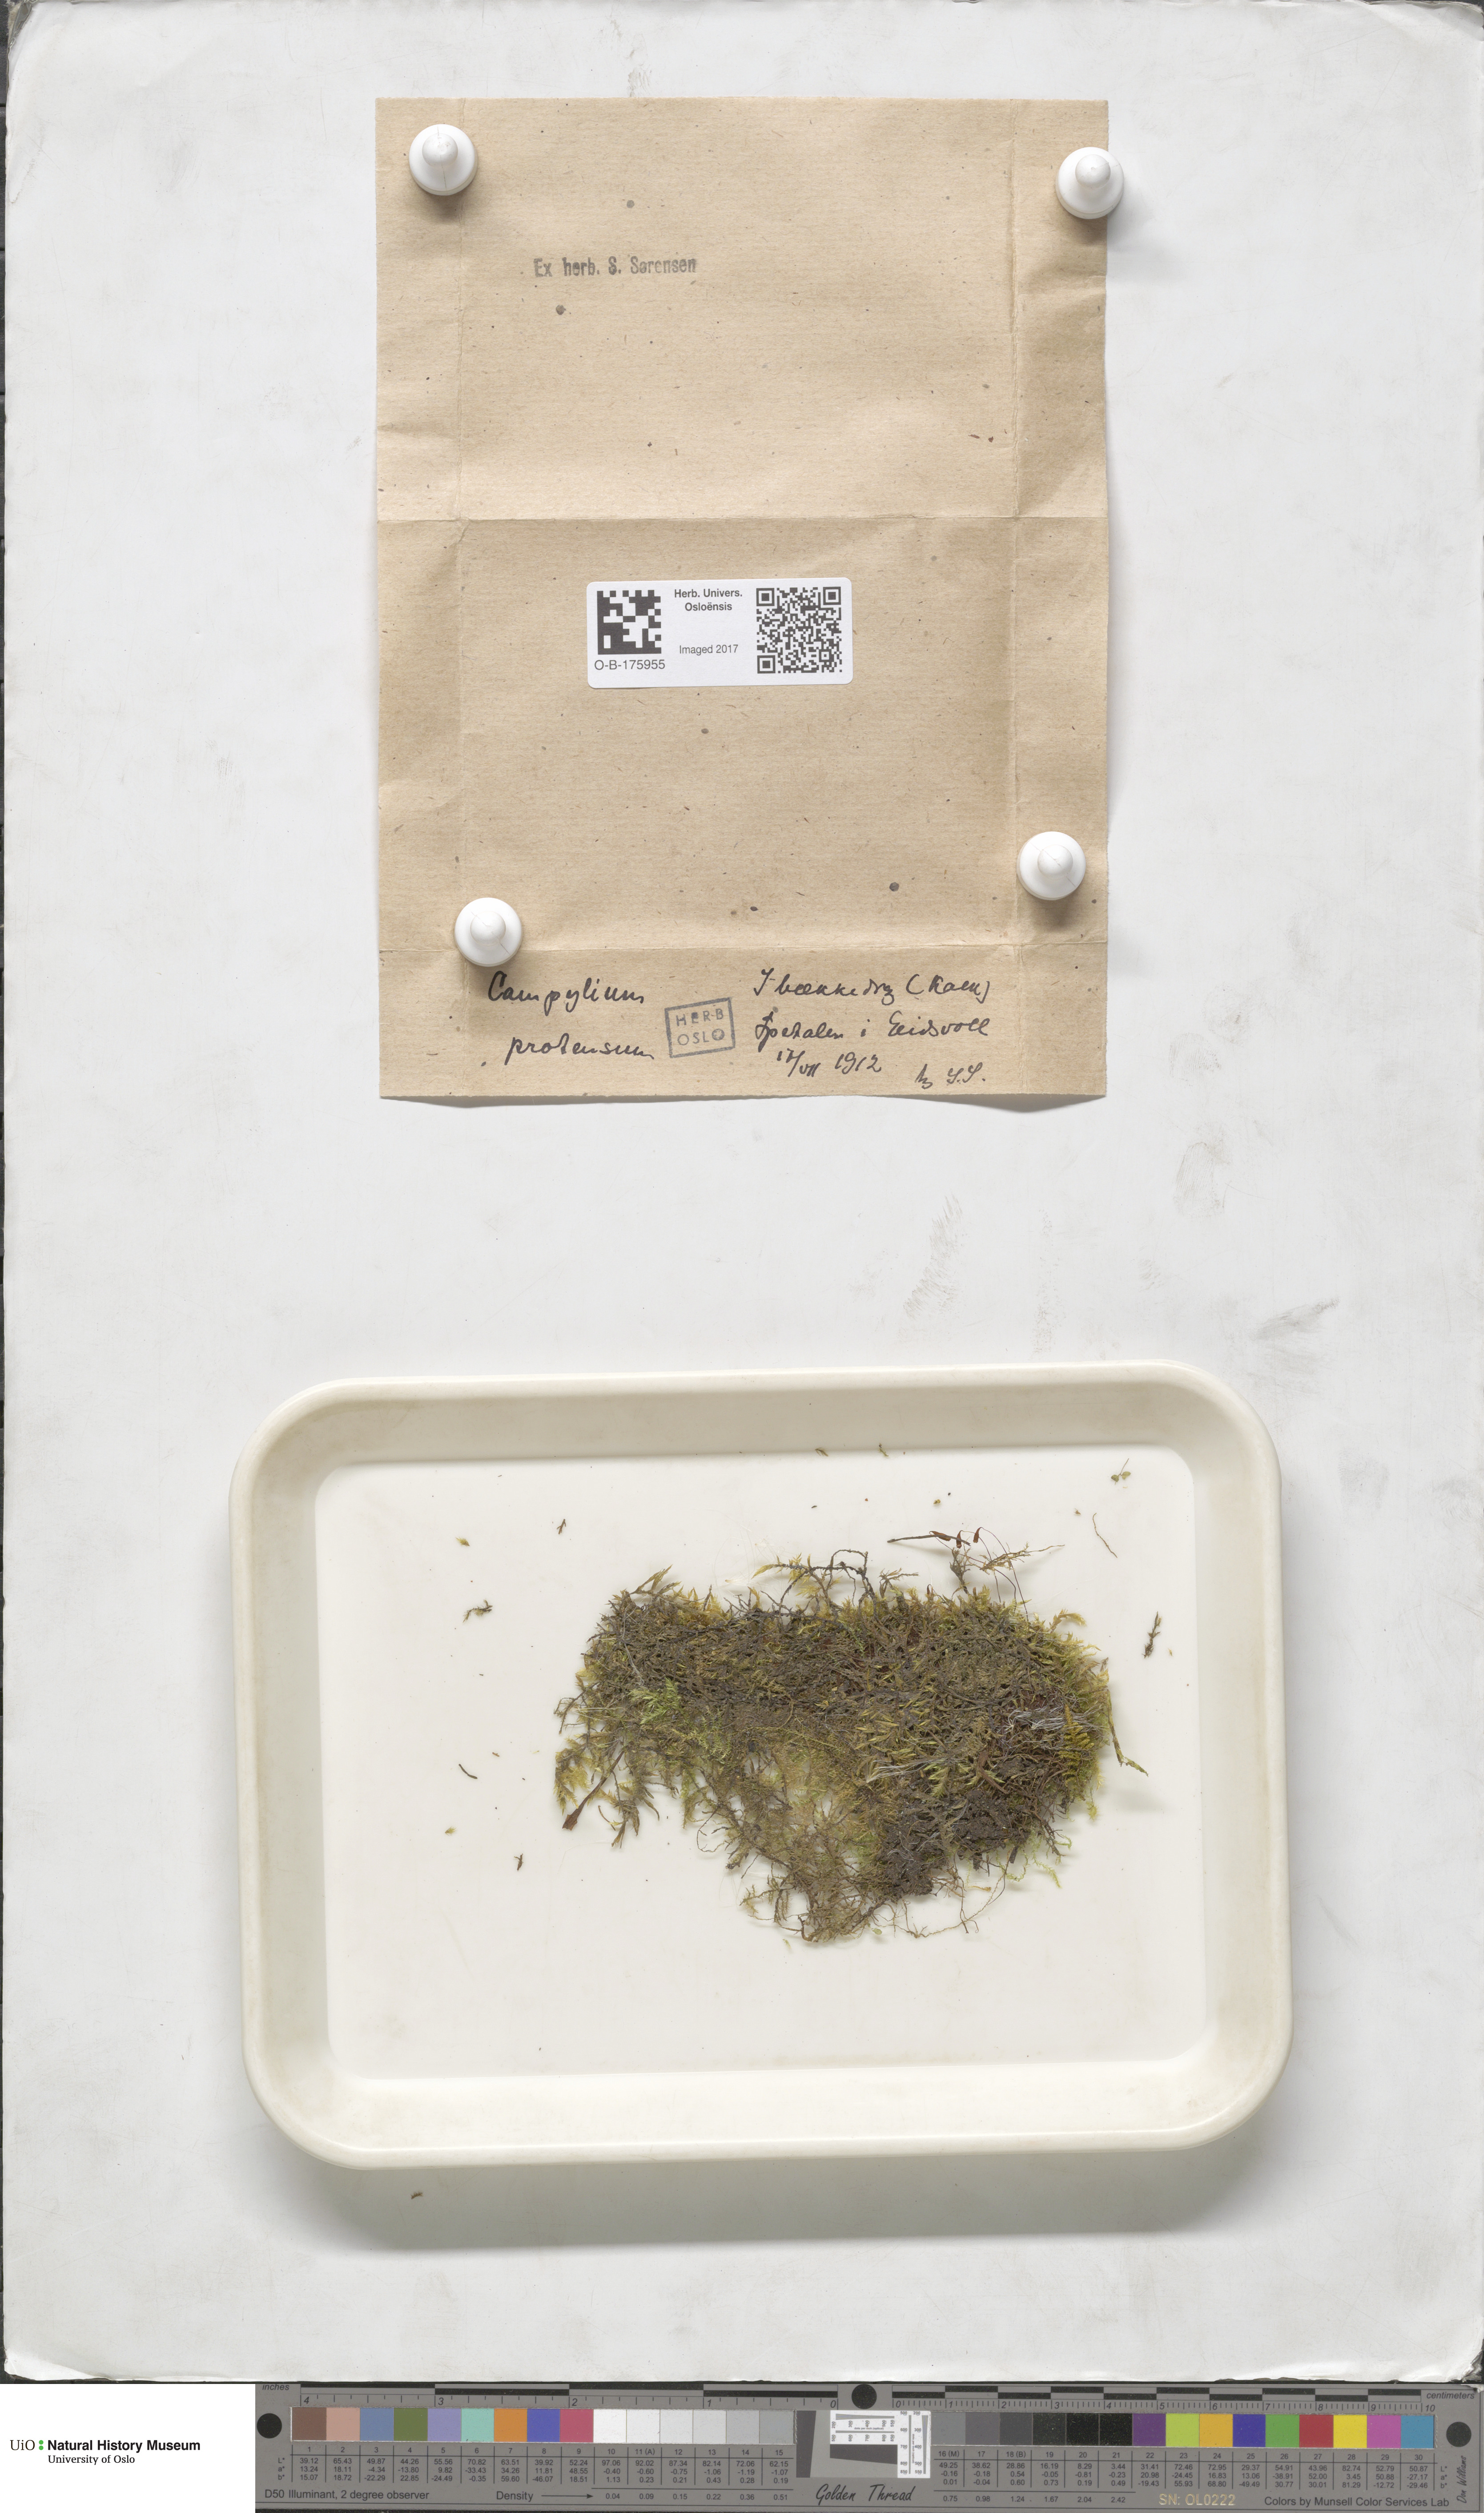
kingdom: Plantae
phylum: Bryophyta
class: Bryopsida
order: Hypnales
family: Amblystegiaceae
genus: Campylium
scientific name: Campylium stellatum
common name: Yellow starry fen moss
